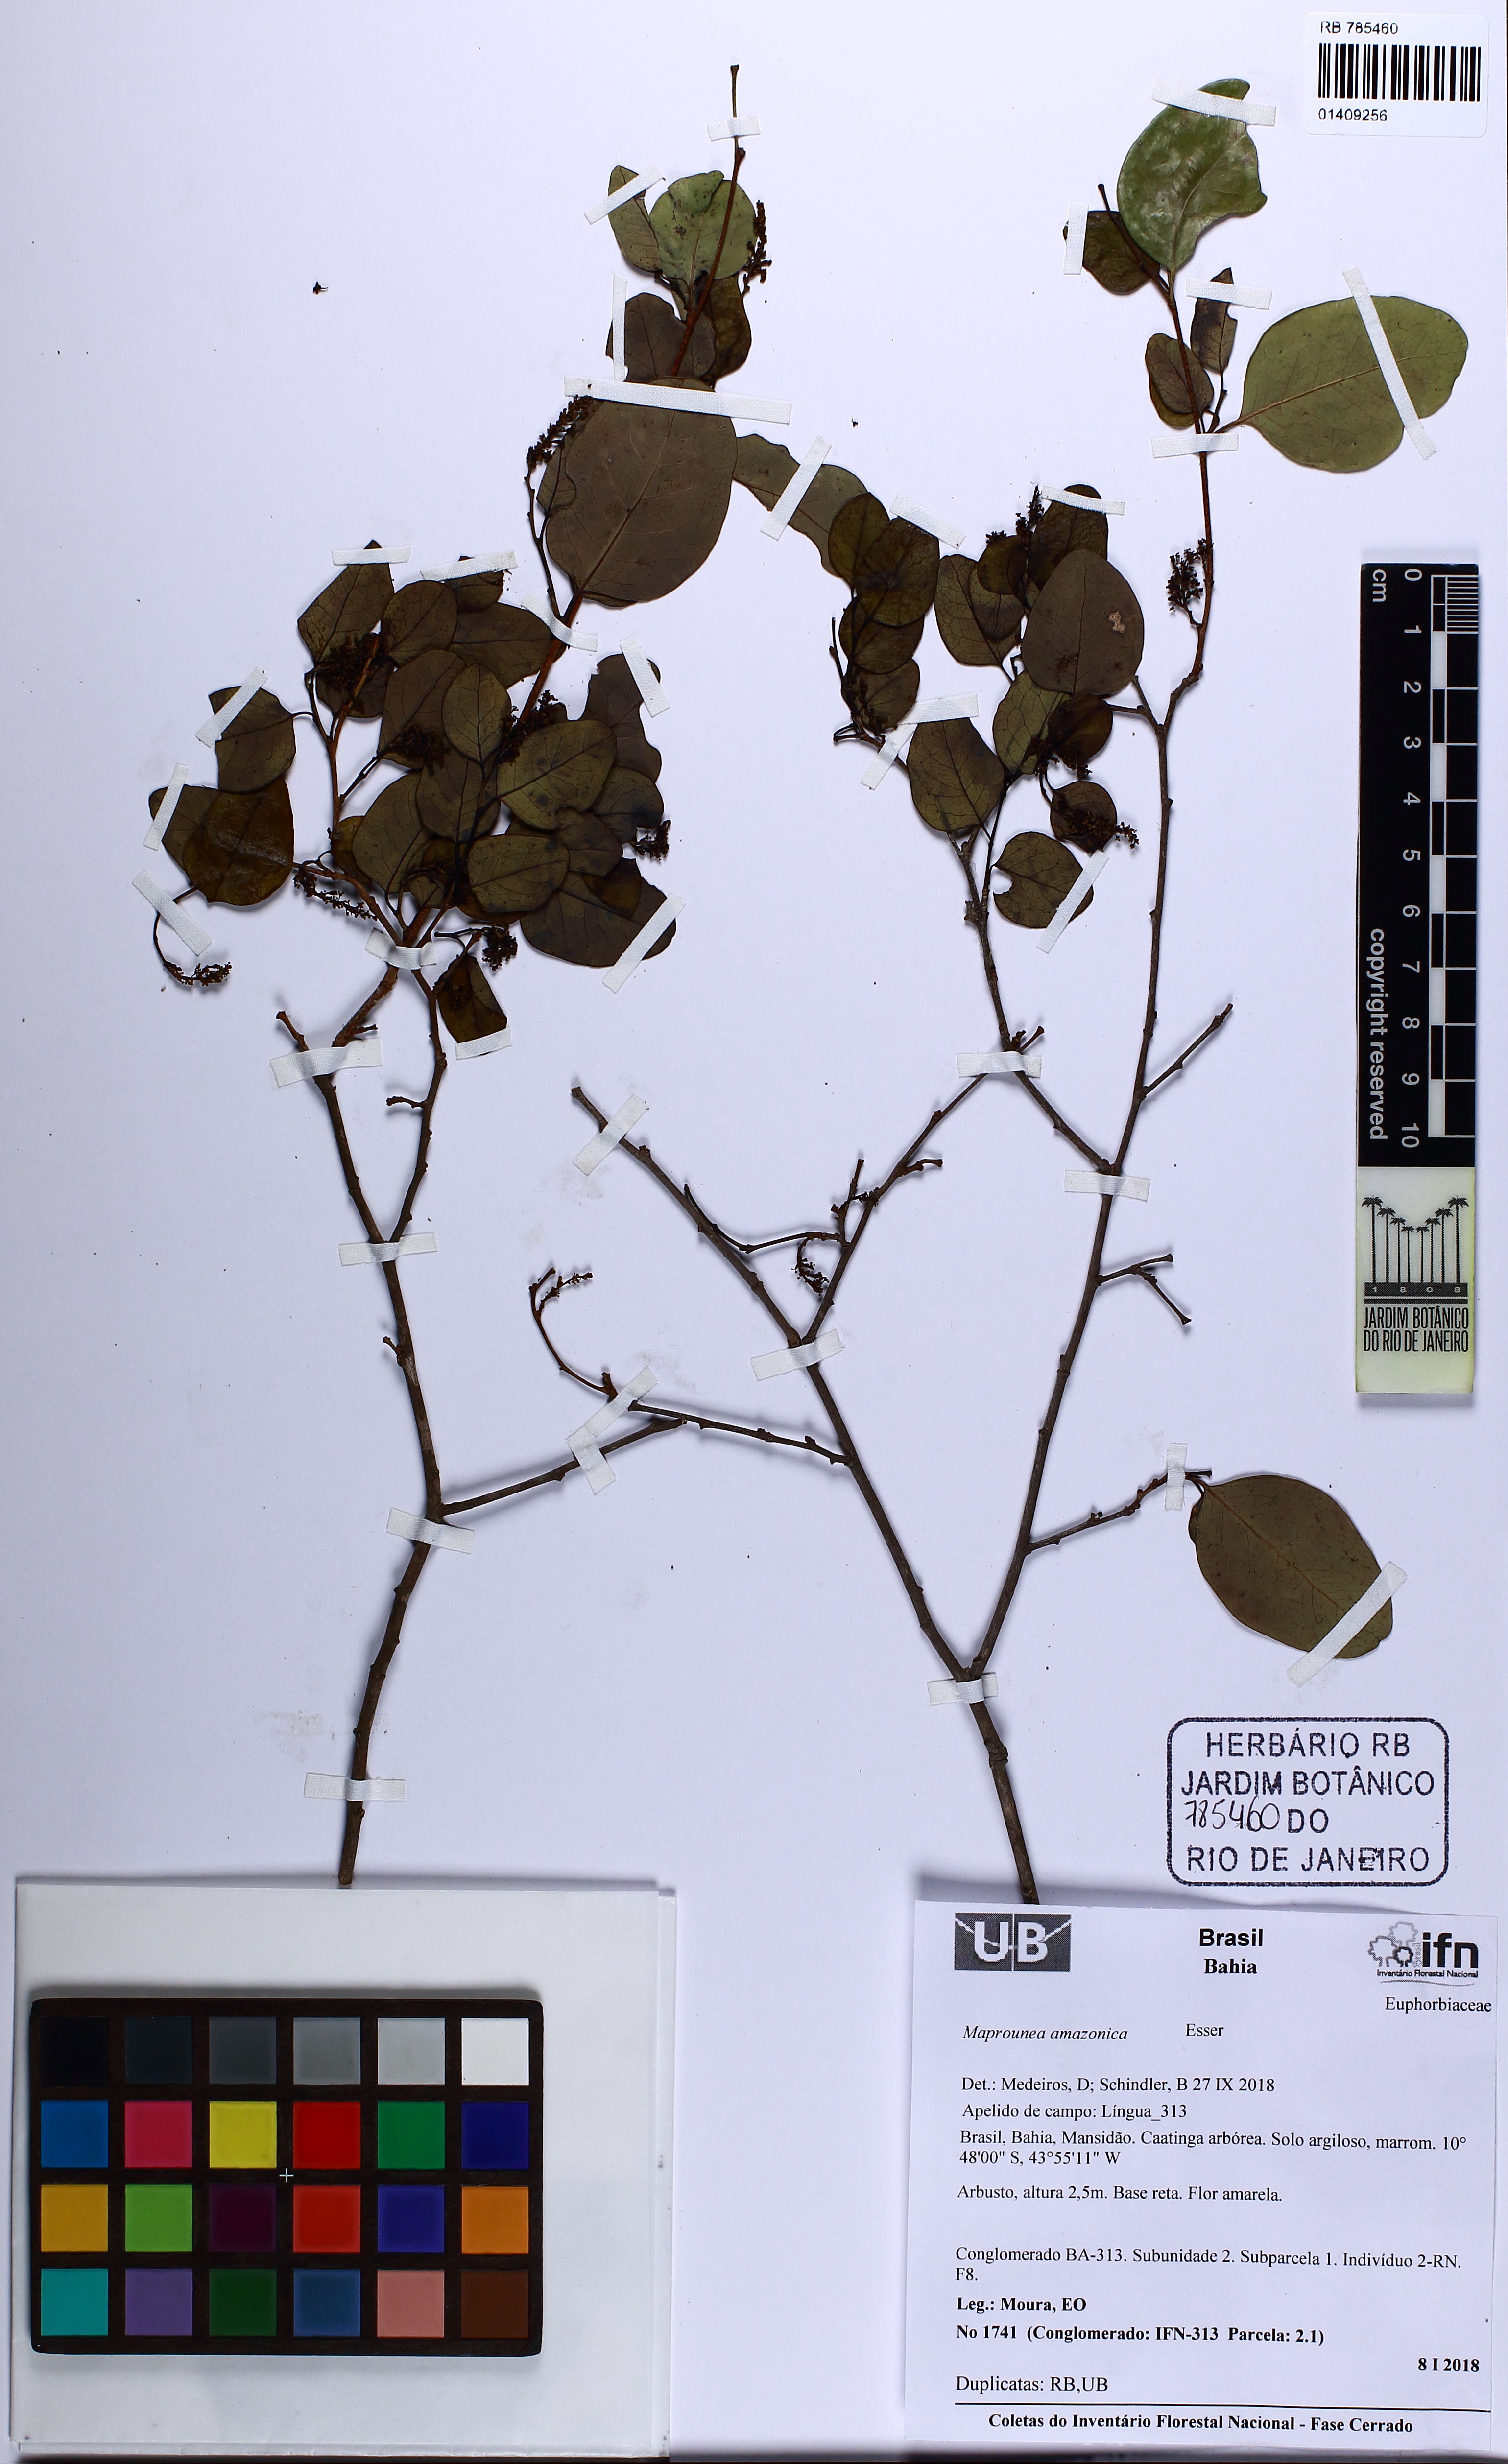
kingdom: Plantae
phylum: Tracheophyta
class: Magnoliopsida
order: Malpighiales
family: Euphorbiaceae
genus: Maprounea
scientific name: Maprounea amazonica
